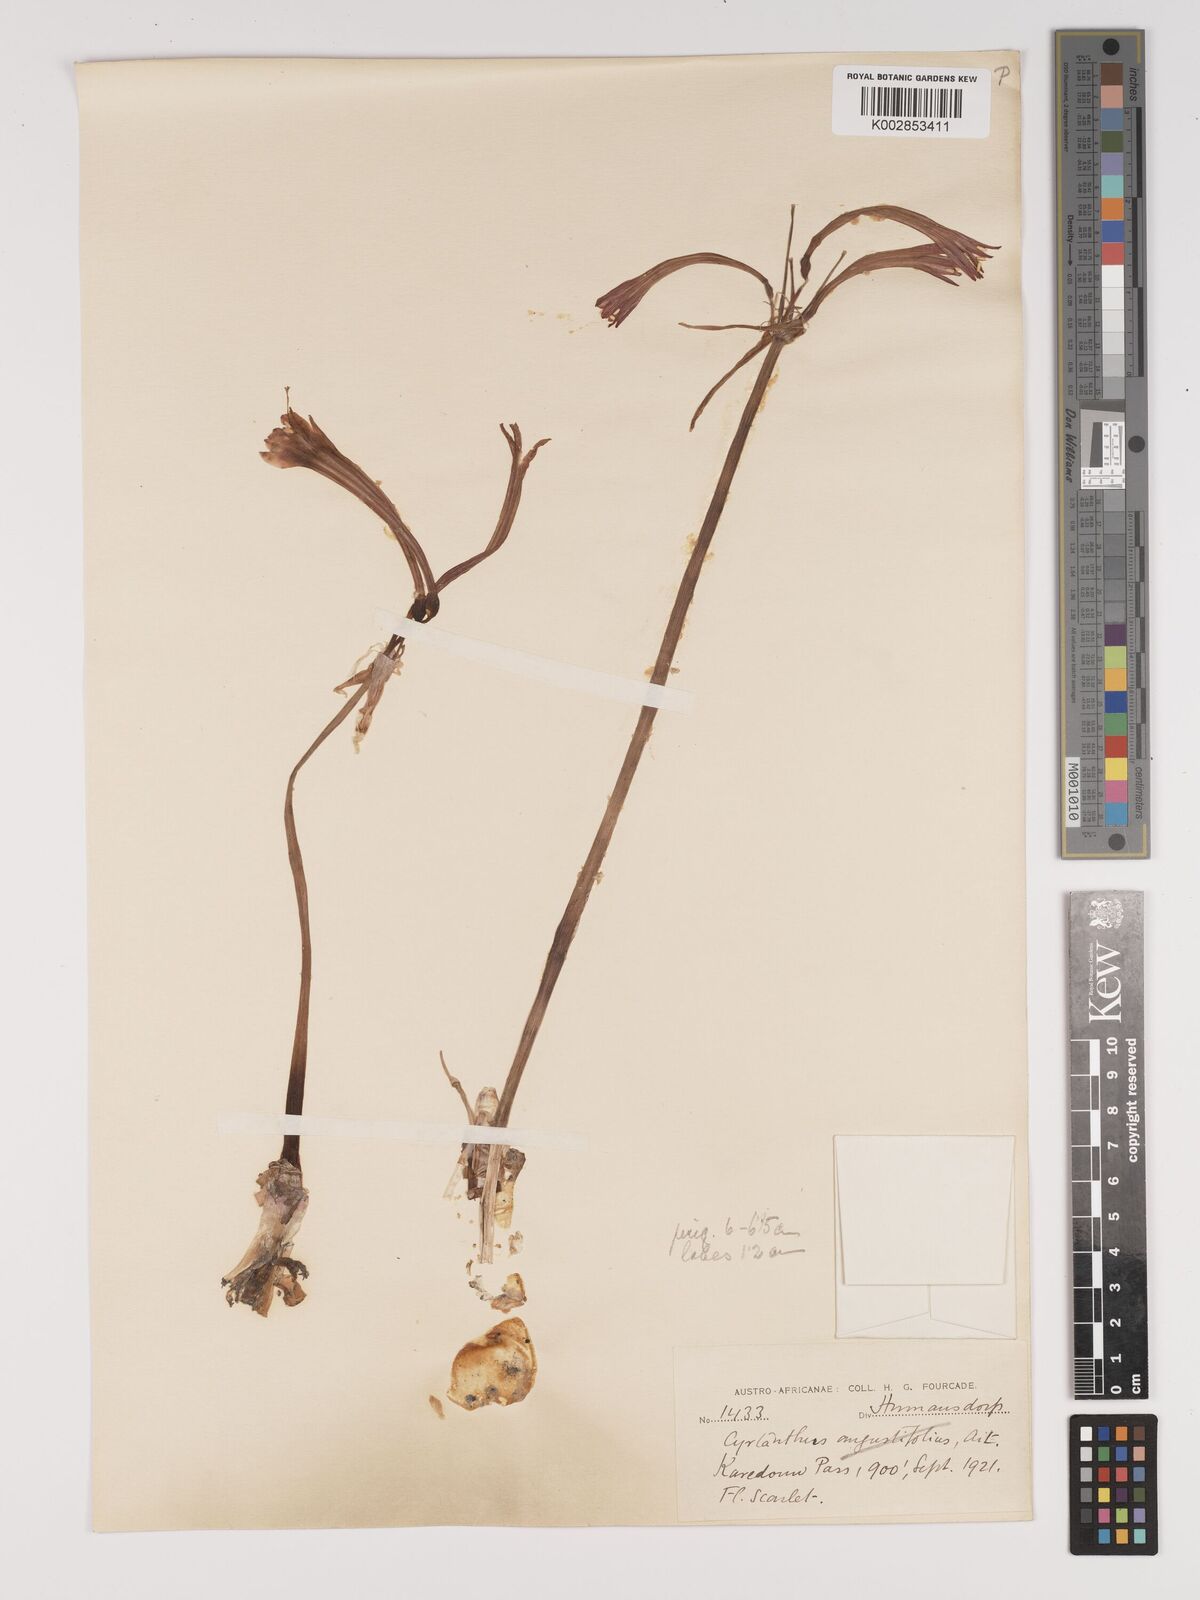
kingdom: Plantae
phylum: Tracheophyta
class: Liliopsida
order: Asparagales
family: Amaryllidaceae
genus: Cyrtanthus
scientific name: Cyrtanthus contractus
